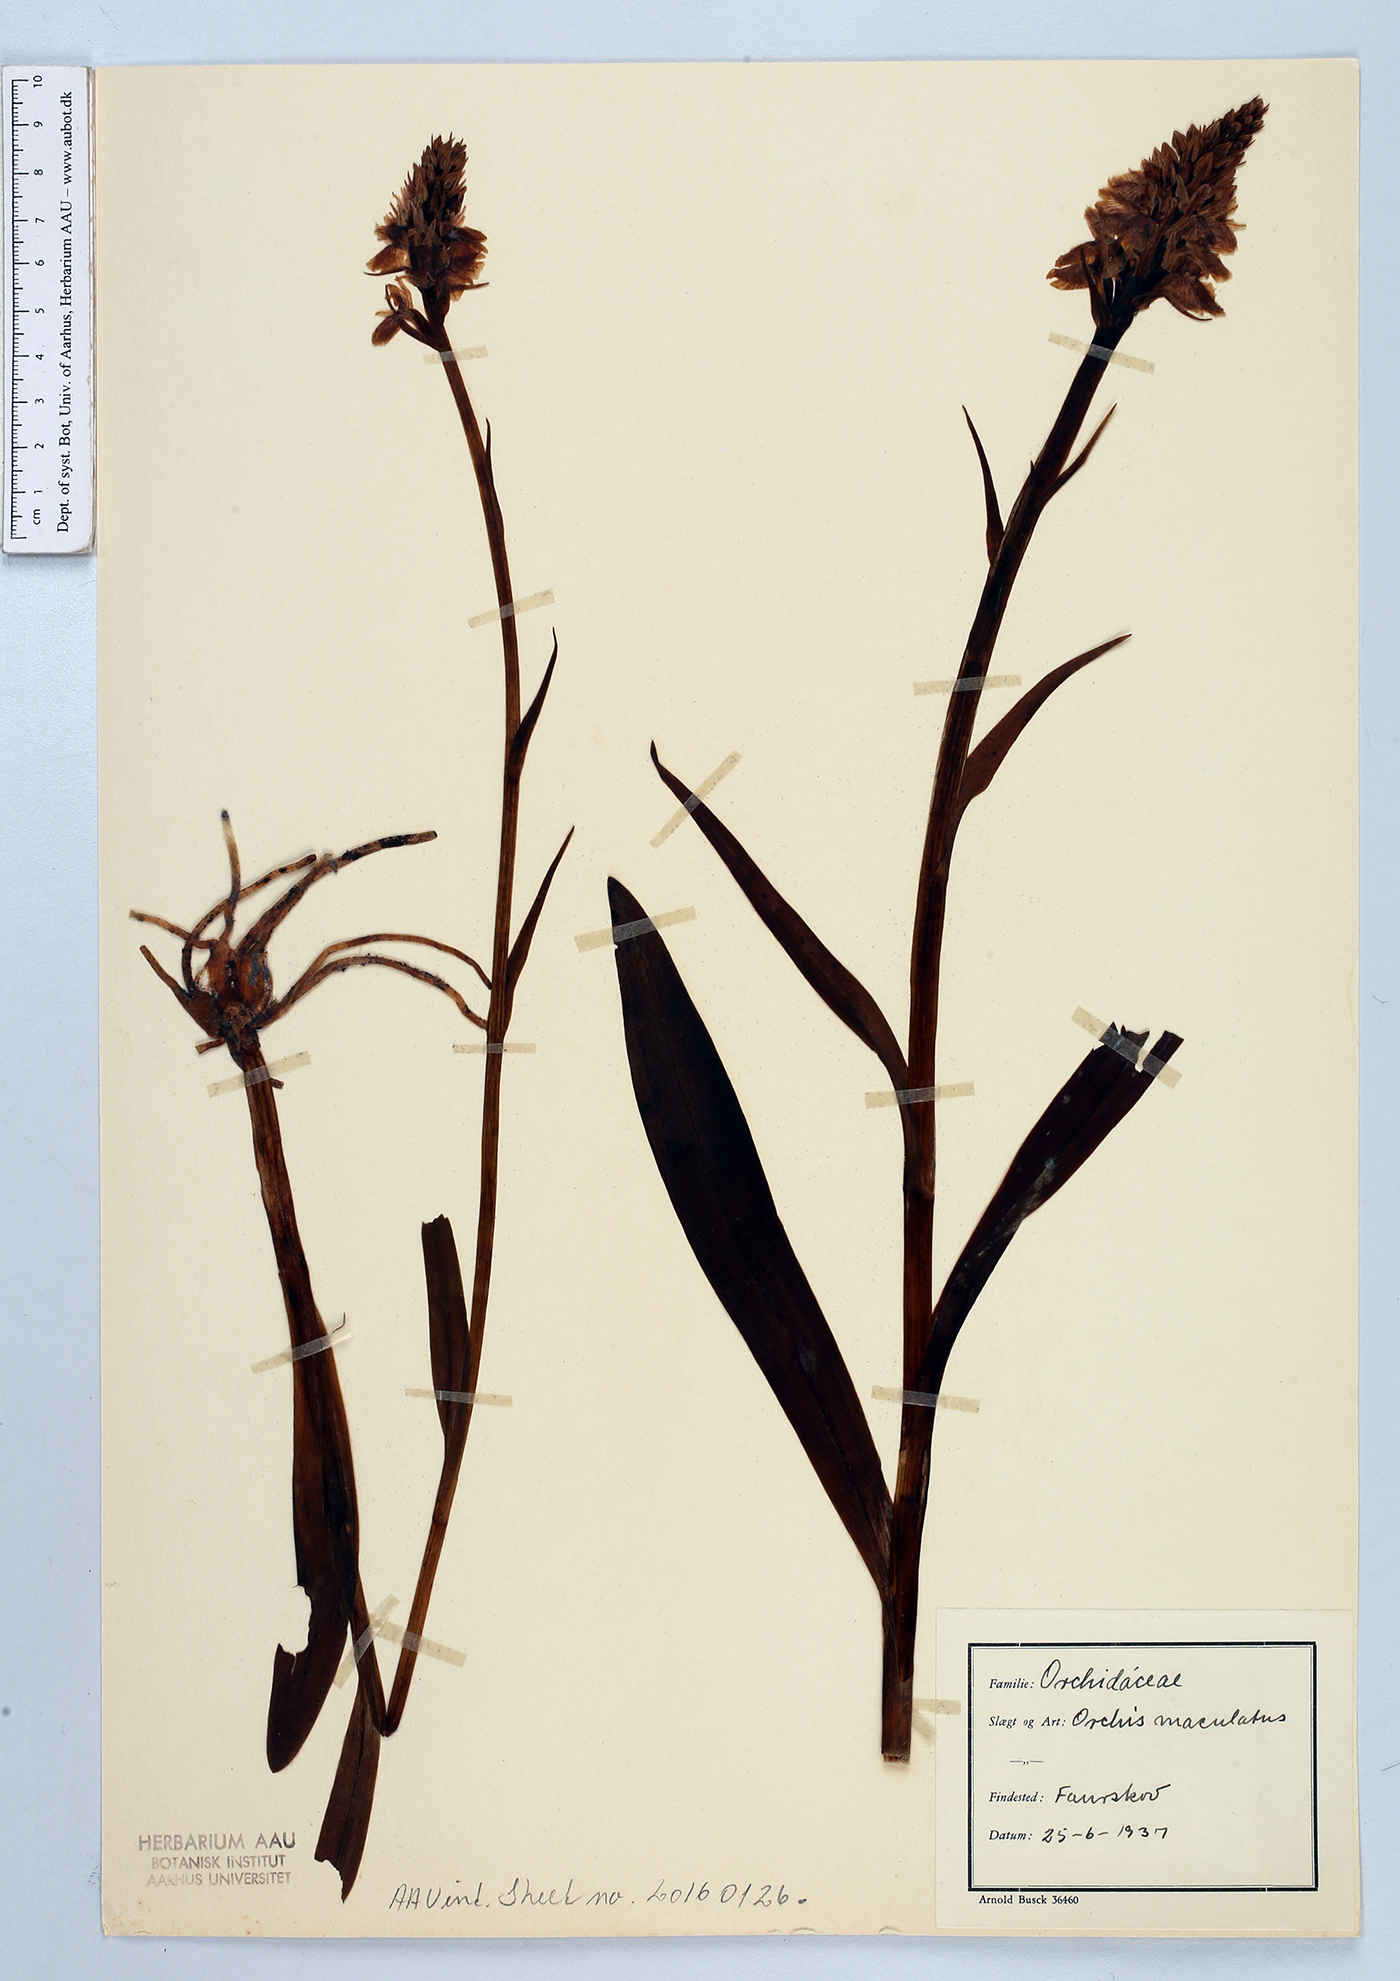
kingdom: Plantae
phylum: Tracheophyta
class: Liliopsida
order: Asparagales
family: Orchidaceae
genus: Dactylorhiza
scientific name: Dactylorhiza maculata
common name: Heath spotted-orchid
